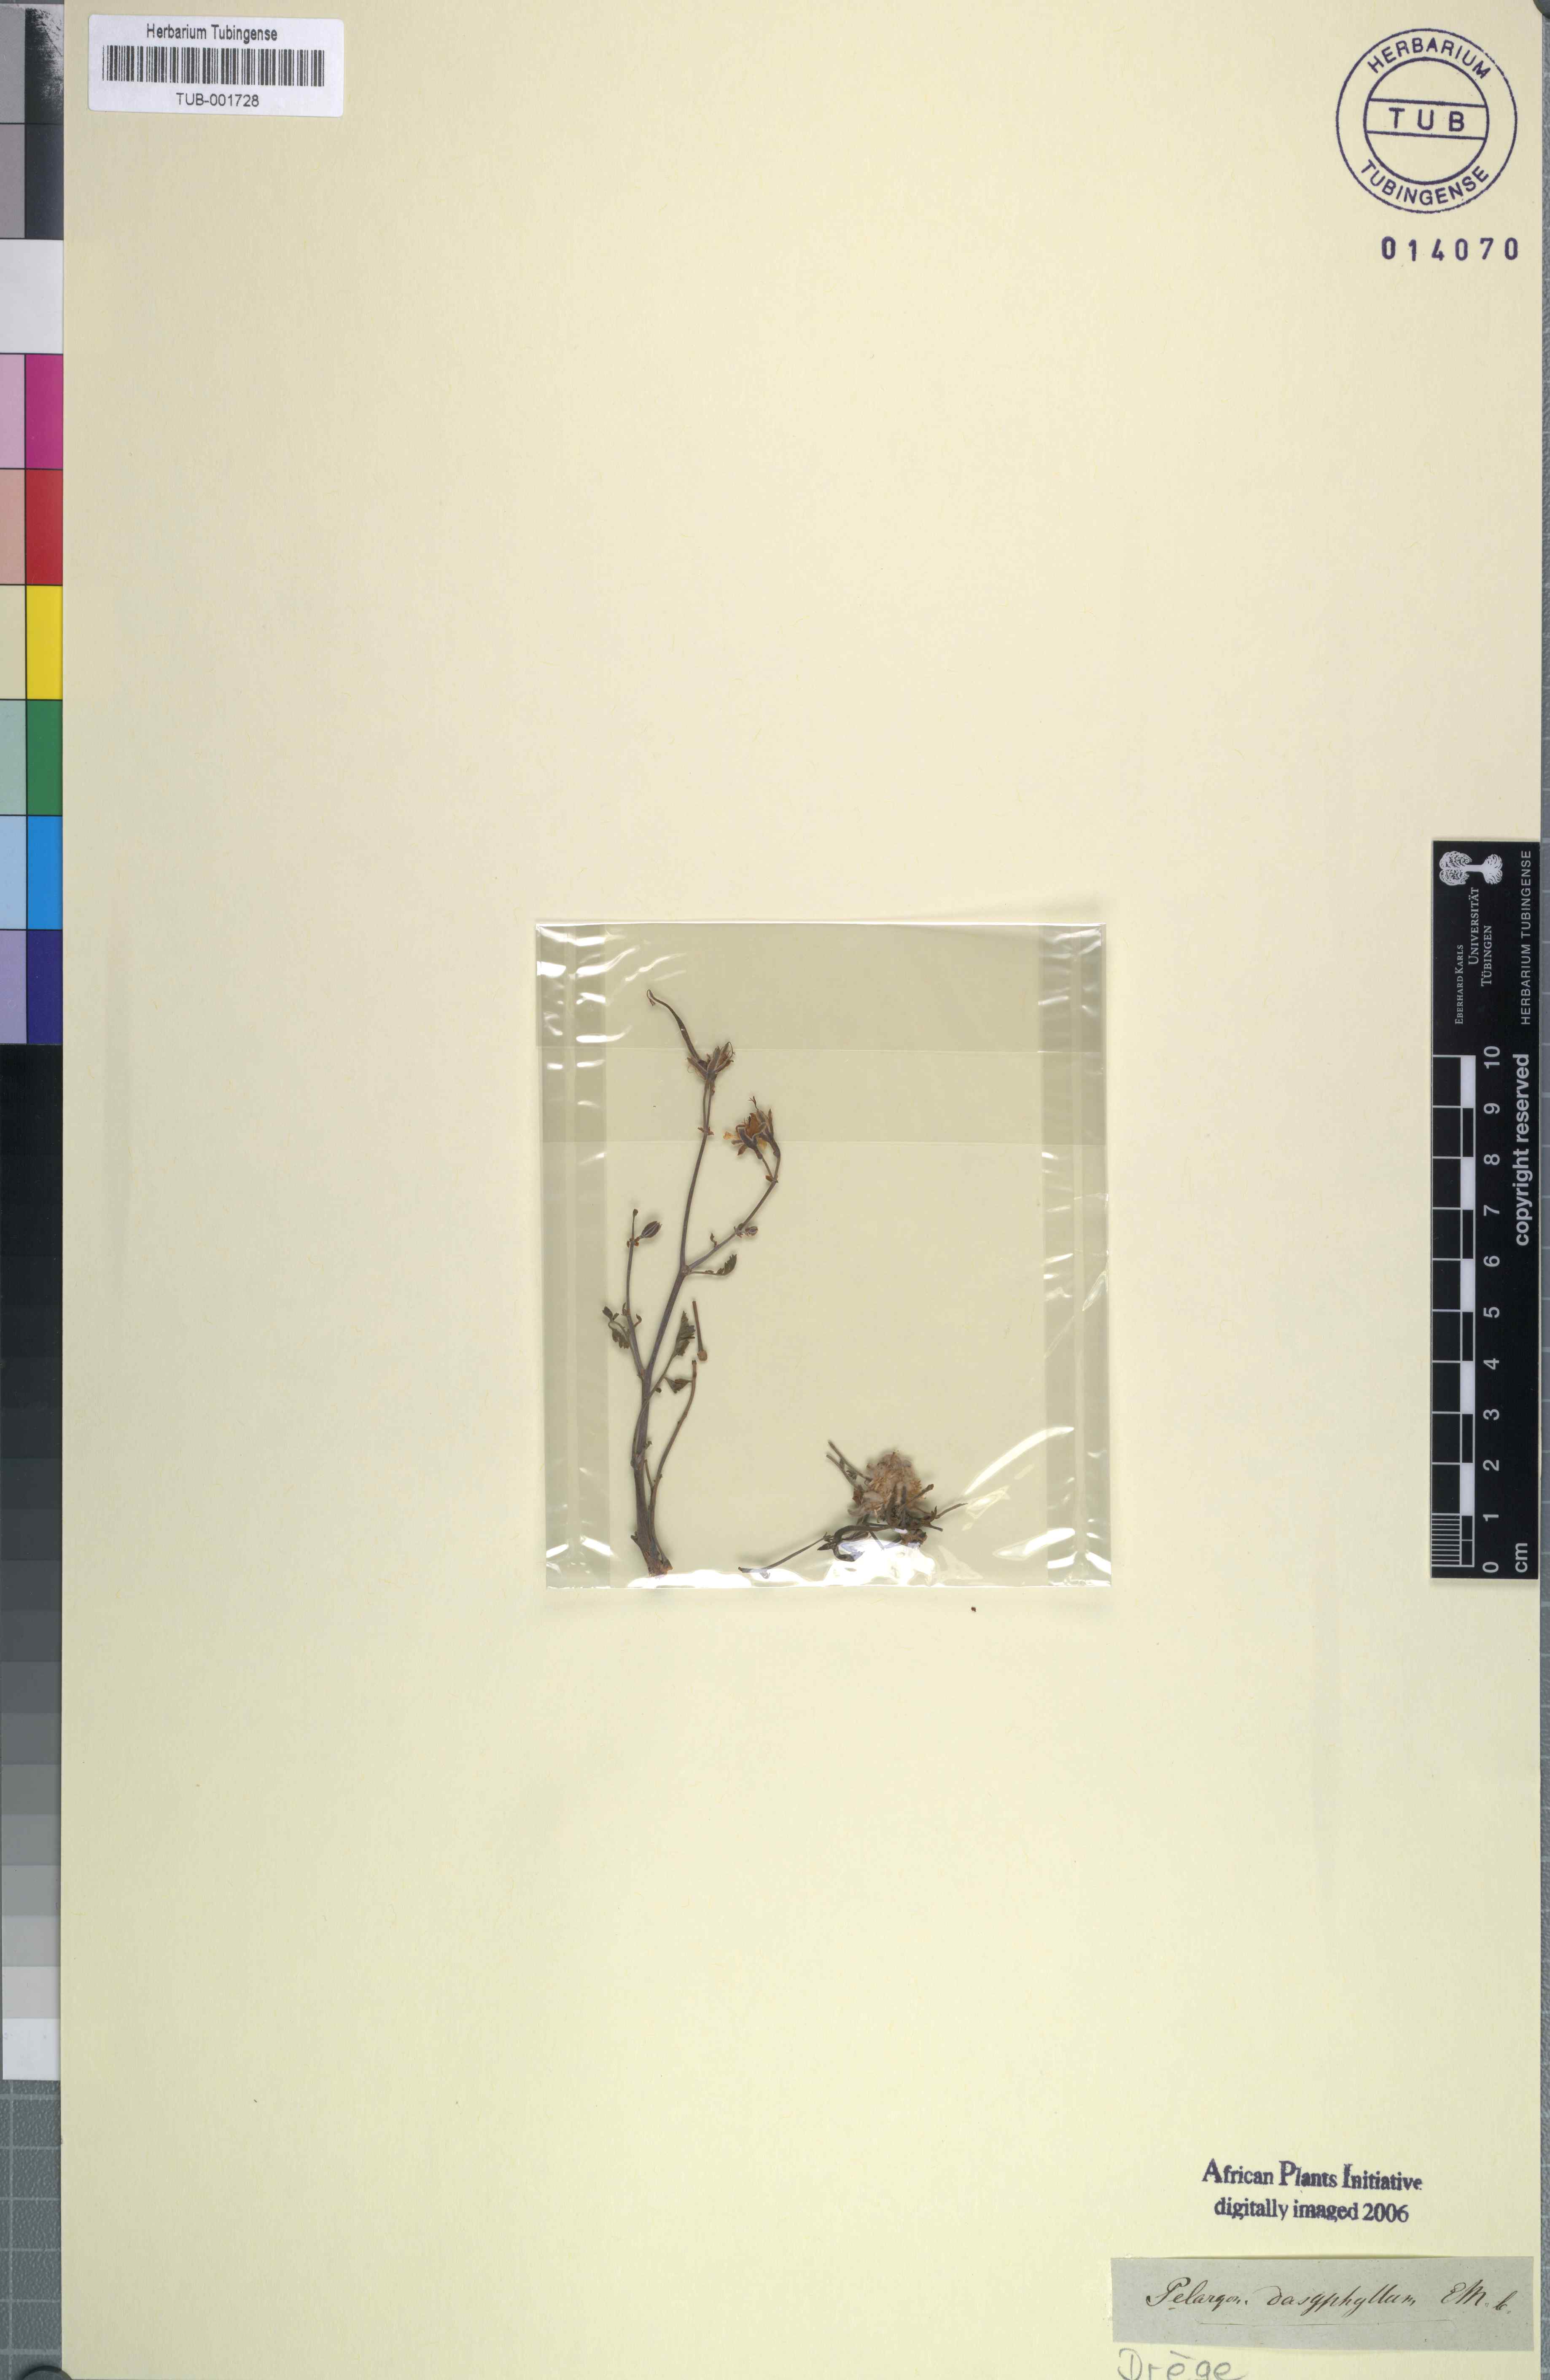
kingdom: Plantae
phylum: Tracheophyta
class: Magnoliopsida
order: Geraniales
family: Geraniaceae
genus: Pelargonium
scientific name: Pelargonium crithmifolium
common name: Samphire-leaf pelargonium
